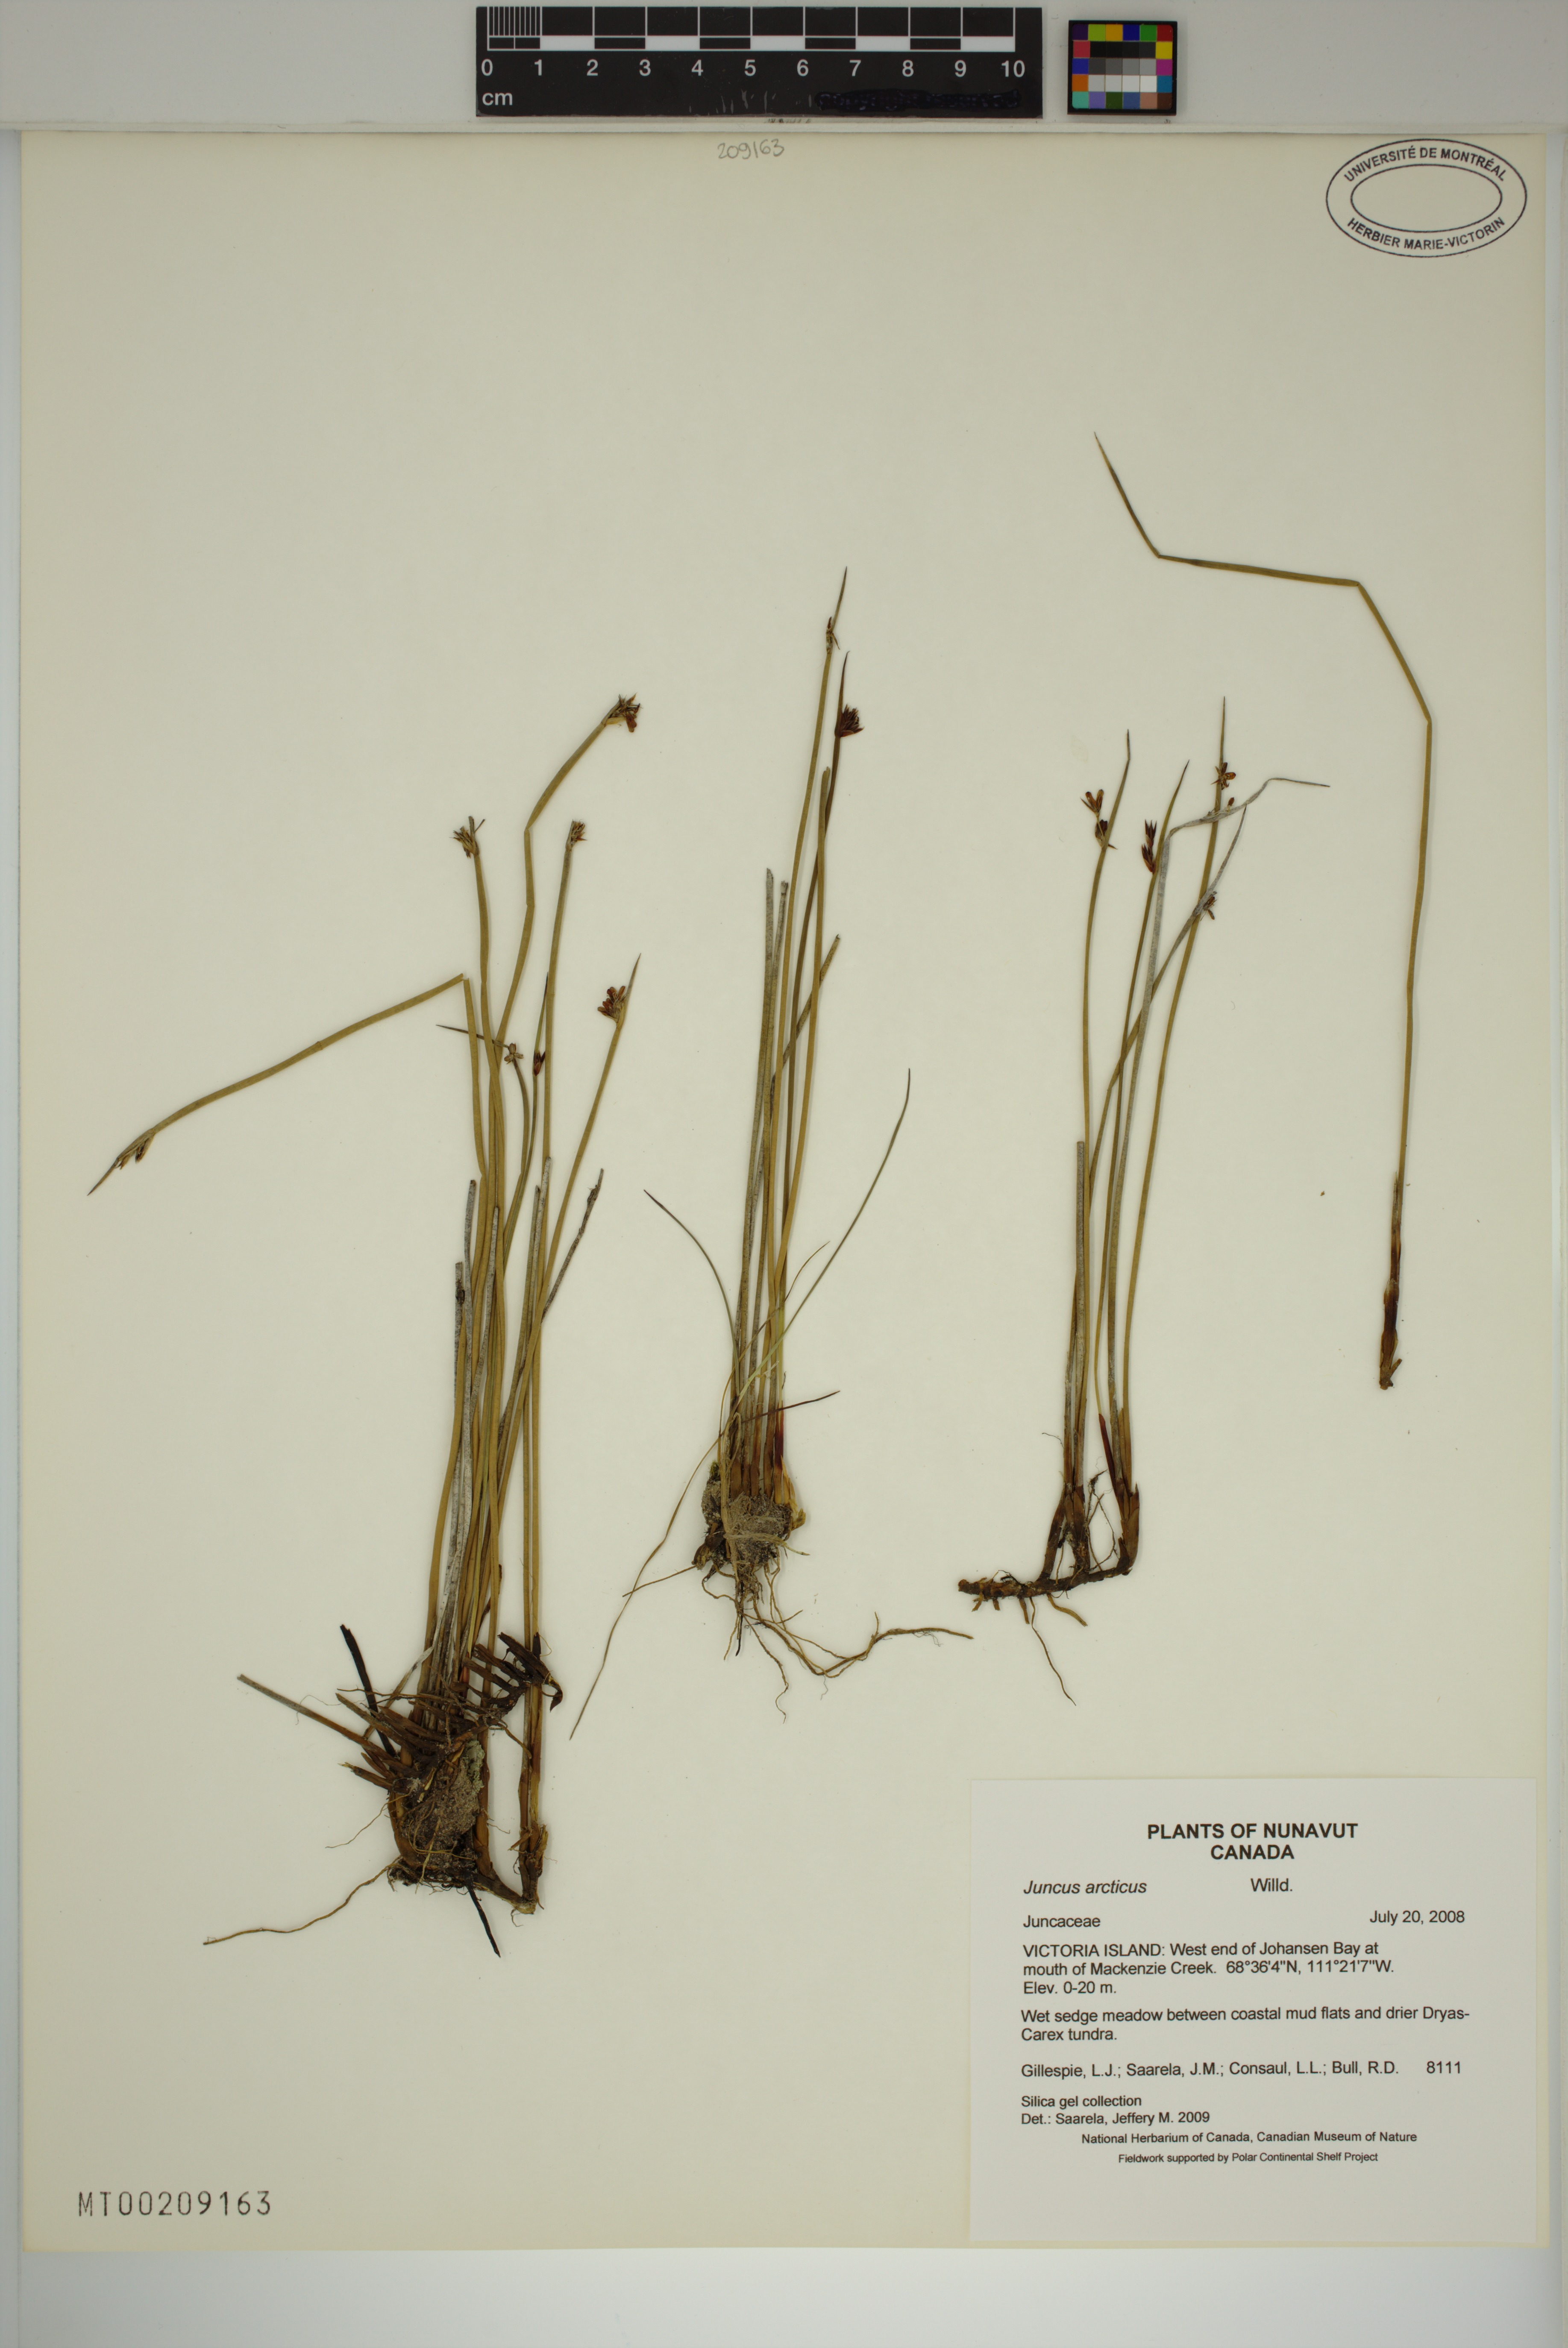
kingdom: Plantae
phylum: Tracheophyta
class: Liliopsida
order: Poales
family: Juncaceae
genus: Juncus
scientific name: Juncus arcticus
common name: Arctic rush
